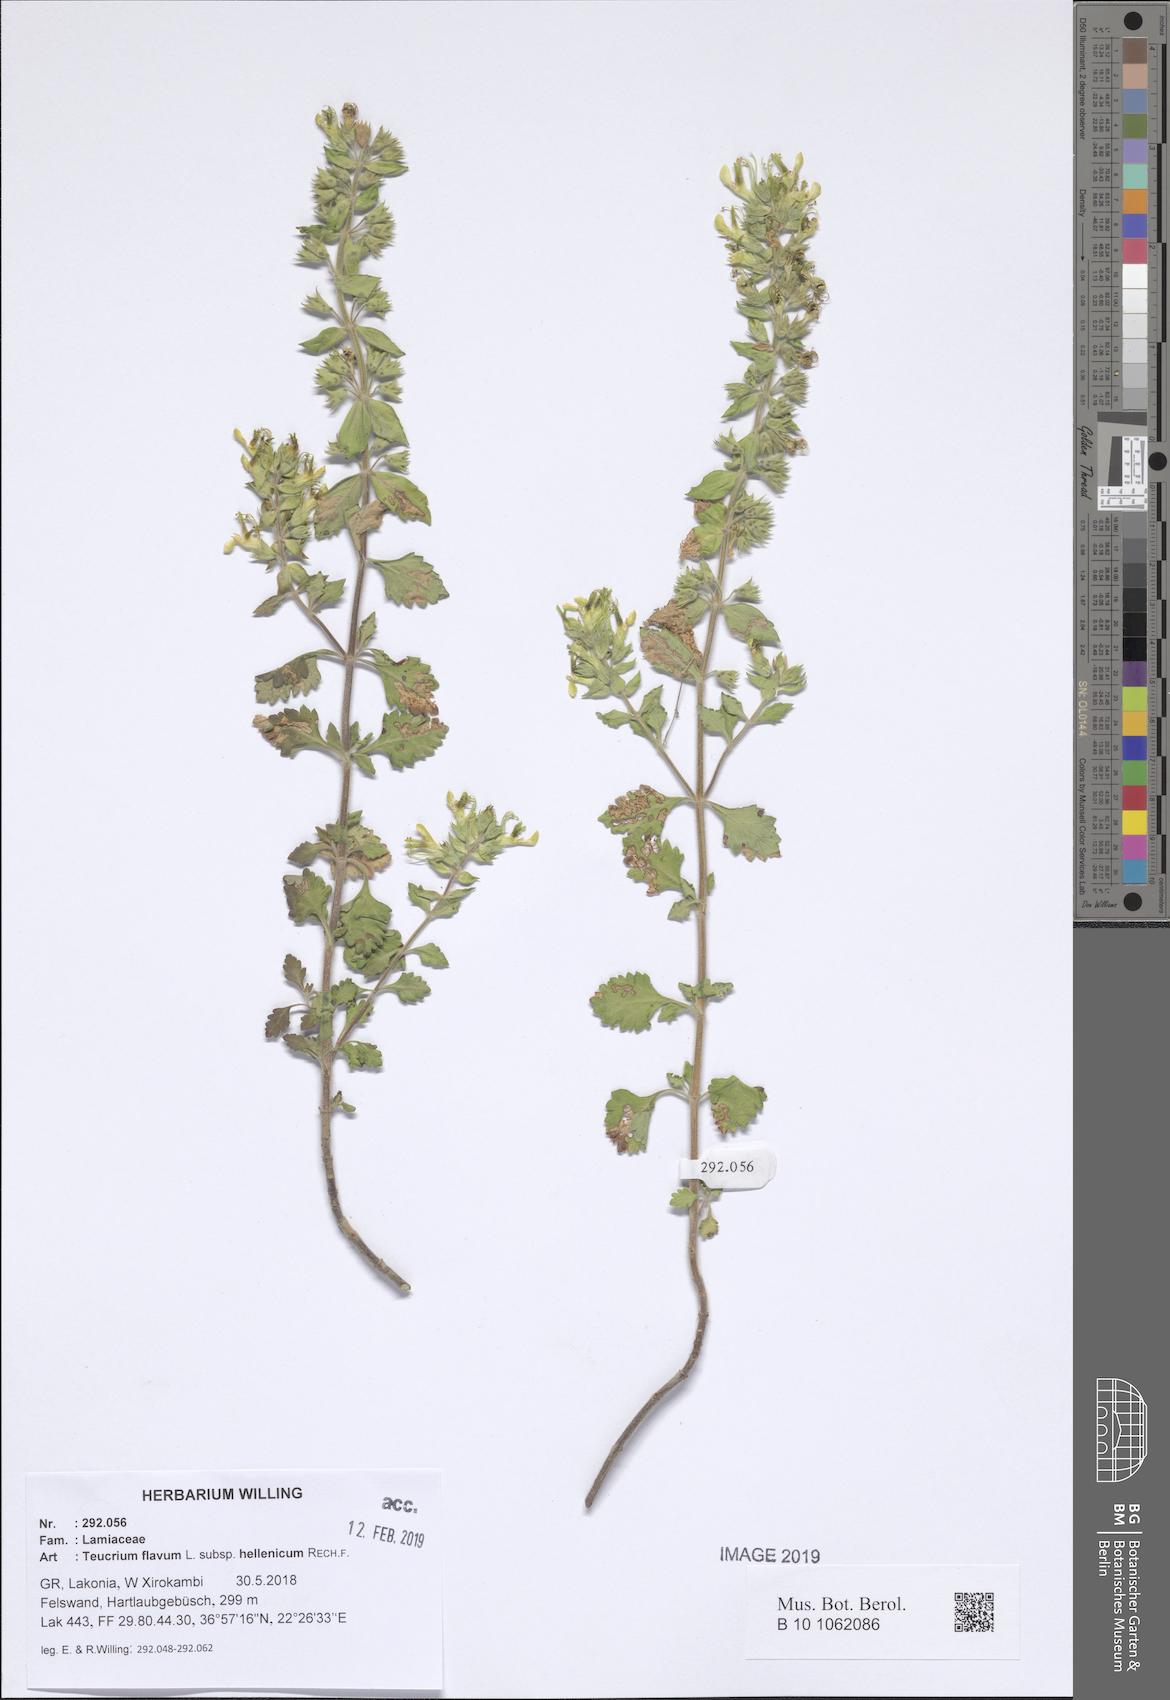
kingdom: Plantae
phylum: Tracheophyta
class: Magnoliopsida
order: Lamiales
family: Lamiaceae
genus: Teucrium
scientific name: Teucrium flavum
